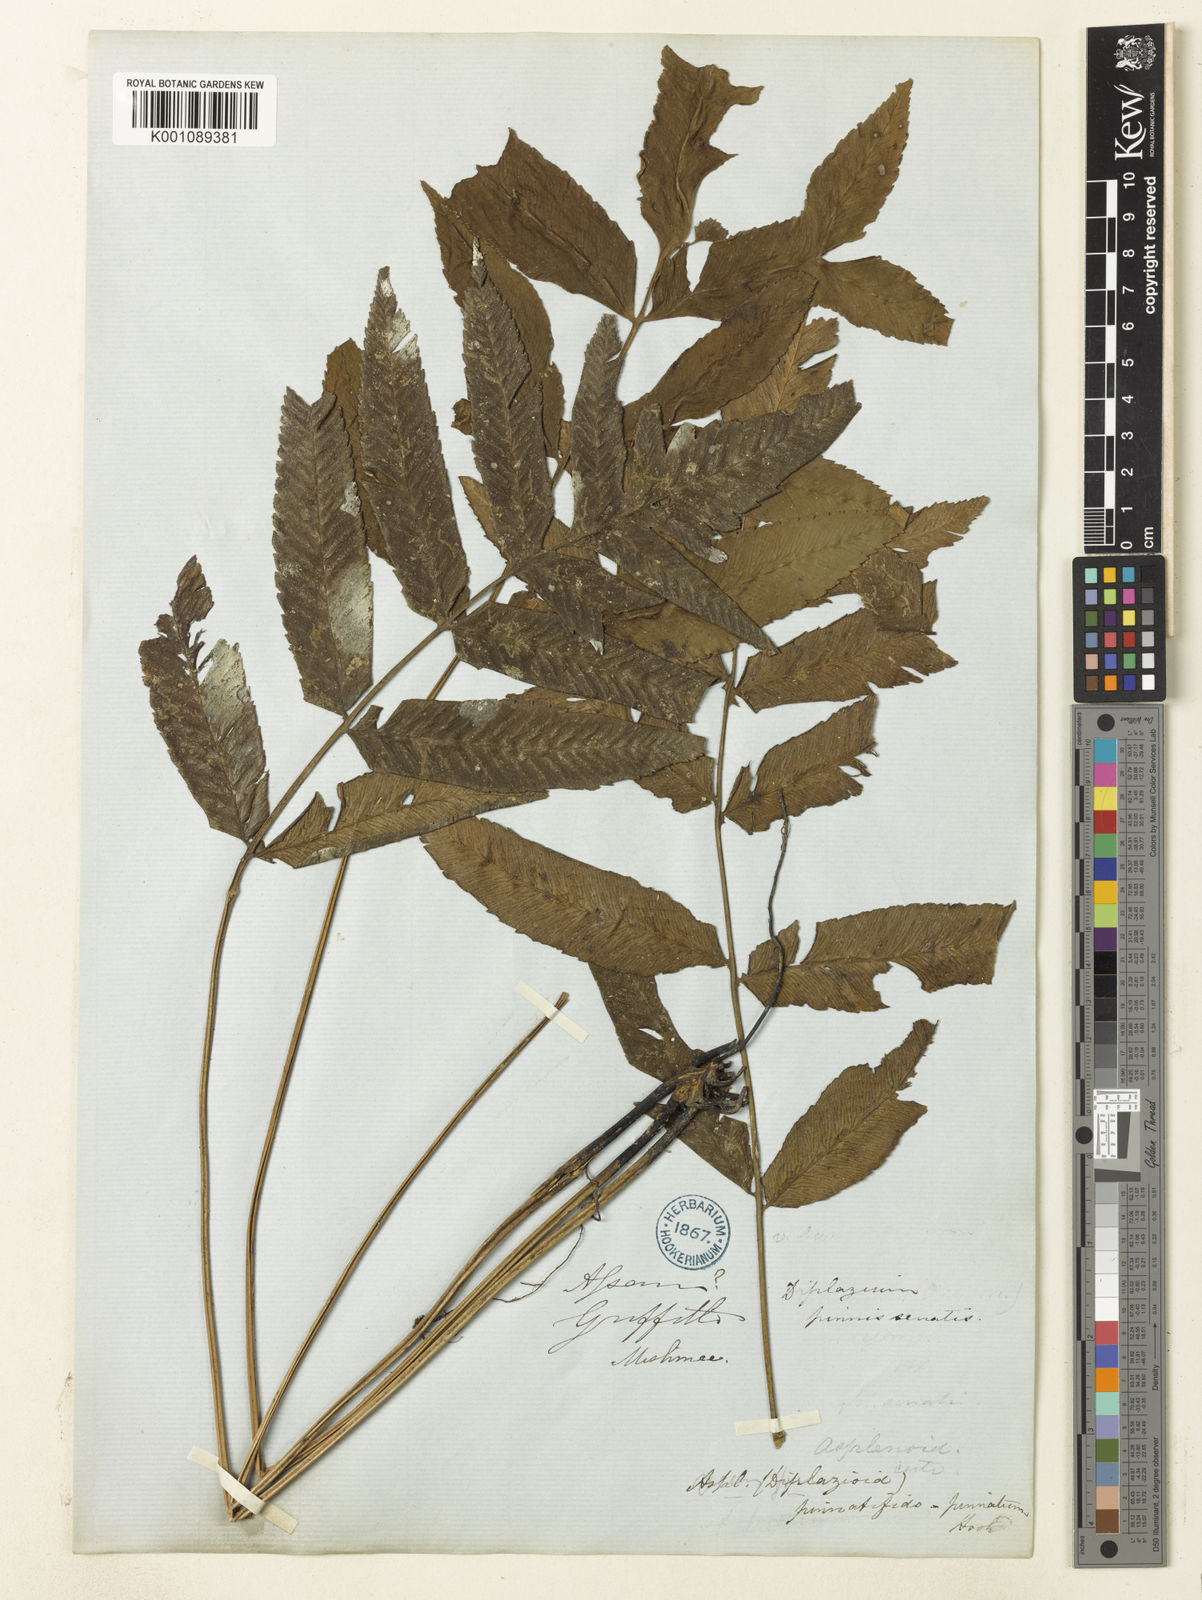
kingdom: Plantae
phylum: Tracheophyta
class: Polypodiopsida
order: Polypodiales
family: Athyriaceae
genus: Diplazium
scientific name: Diplazium pinnatifidopinnatum
